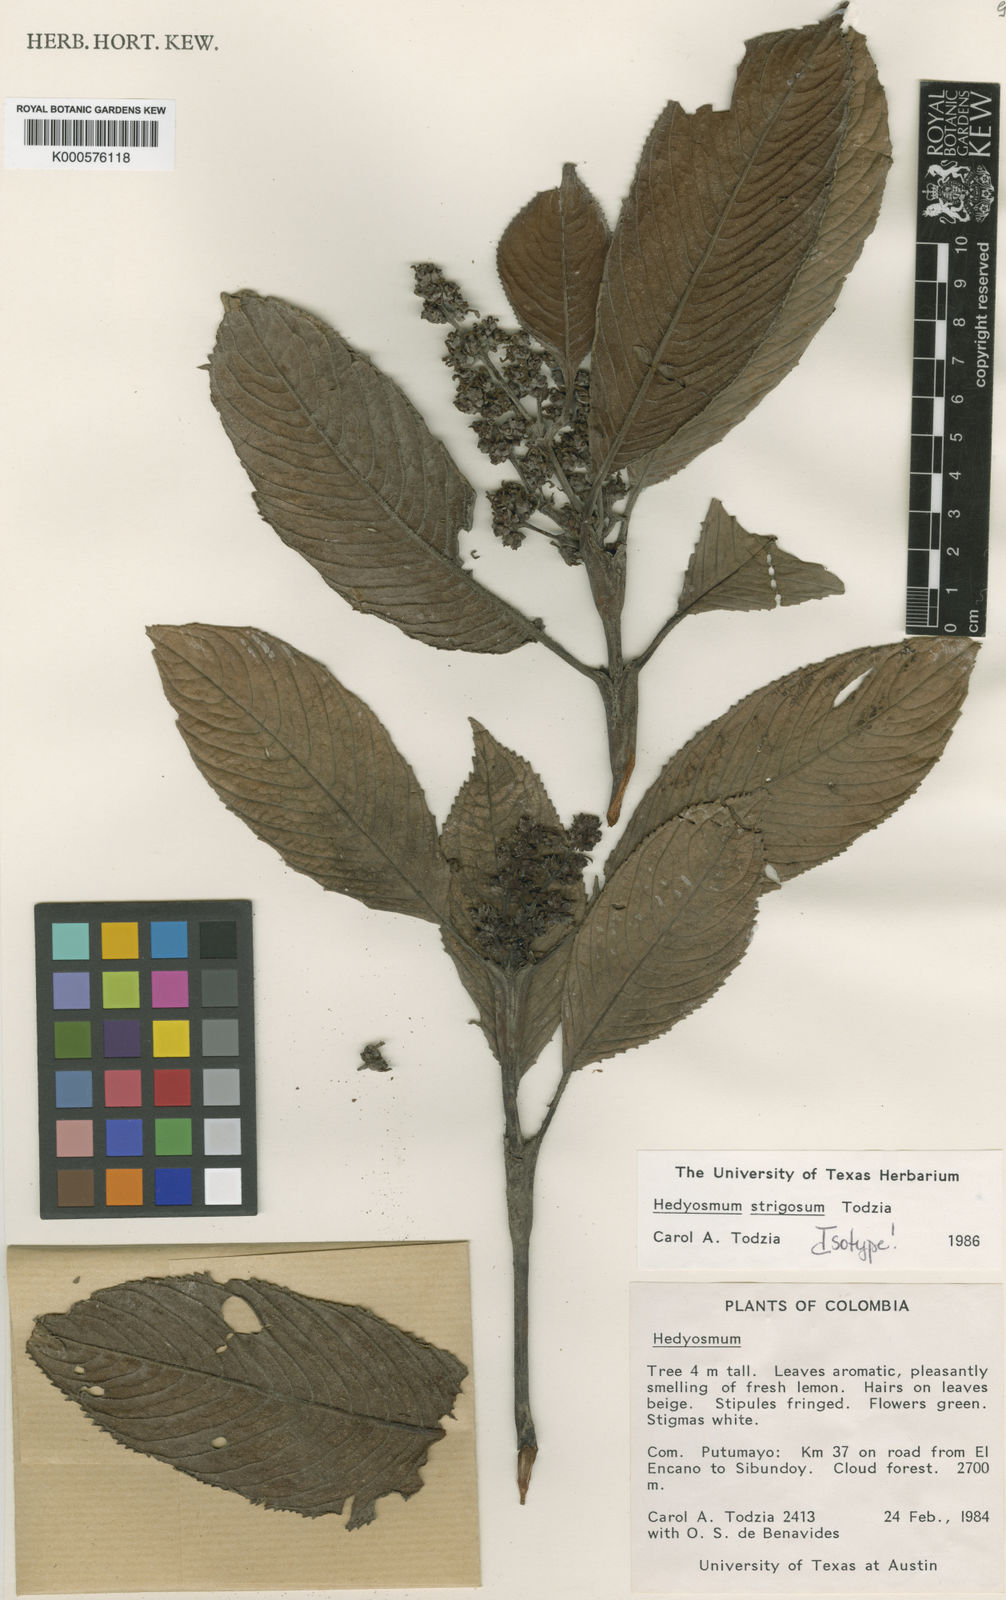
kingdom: Plantae
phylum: Tracheophyta
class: Magnoliopsida
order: Chloranthales
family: Chloranthaceae
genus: Hedyosmum
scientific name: Hedyosmum strigosum
